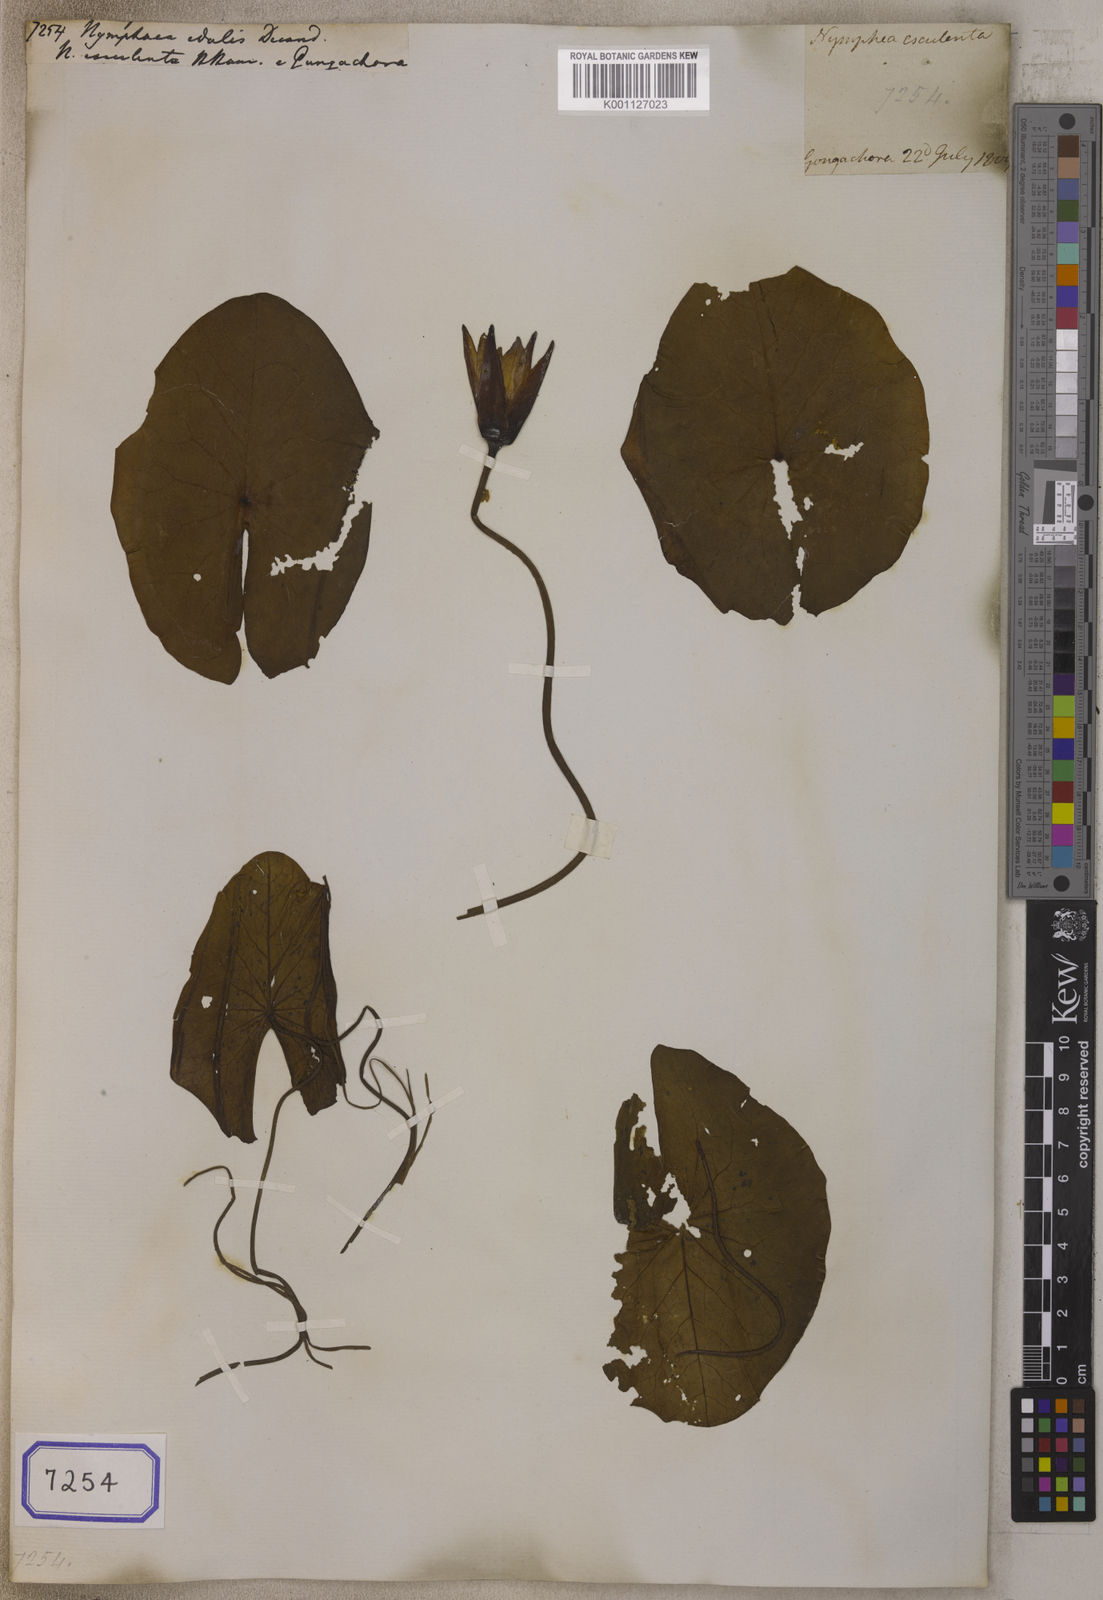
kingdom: Plantae
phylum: Tracheophyta
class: Magnoliopsida
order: Nymphaeales
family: Nymphaeaceae
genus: Nymphaea
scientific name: Nymphaea lotus
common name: White egyptian lotus
